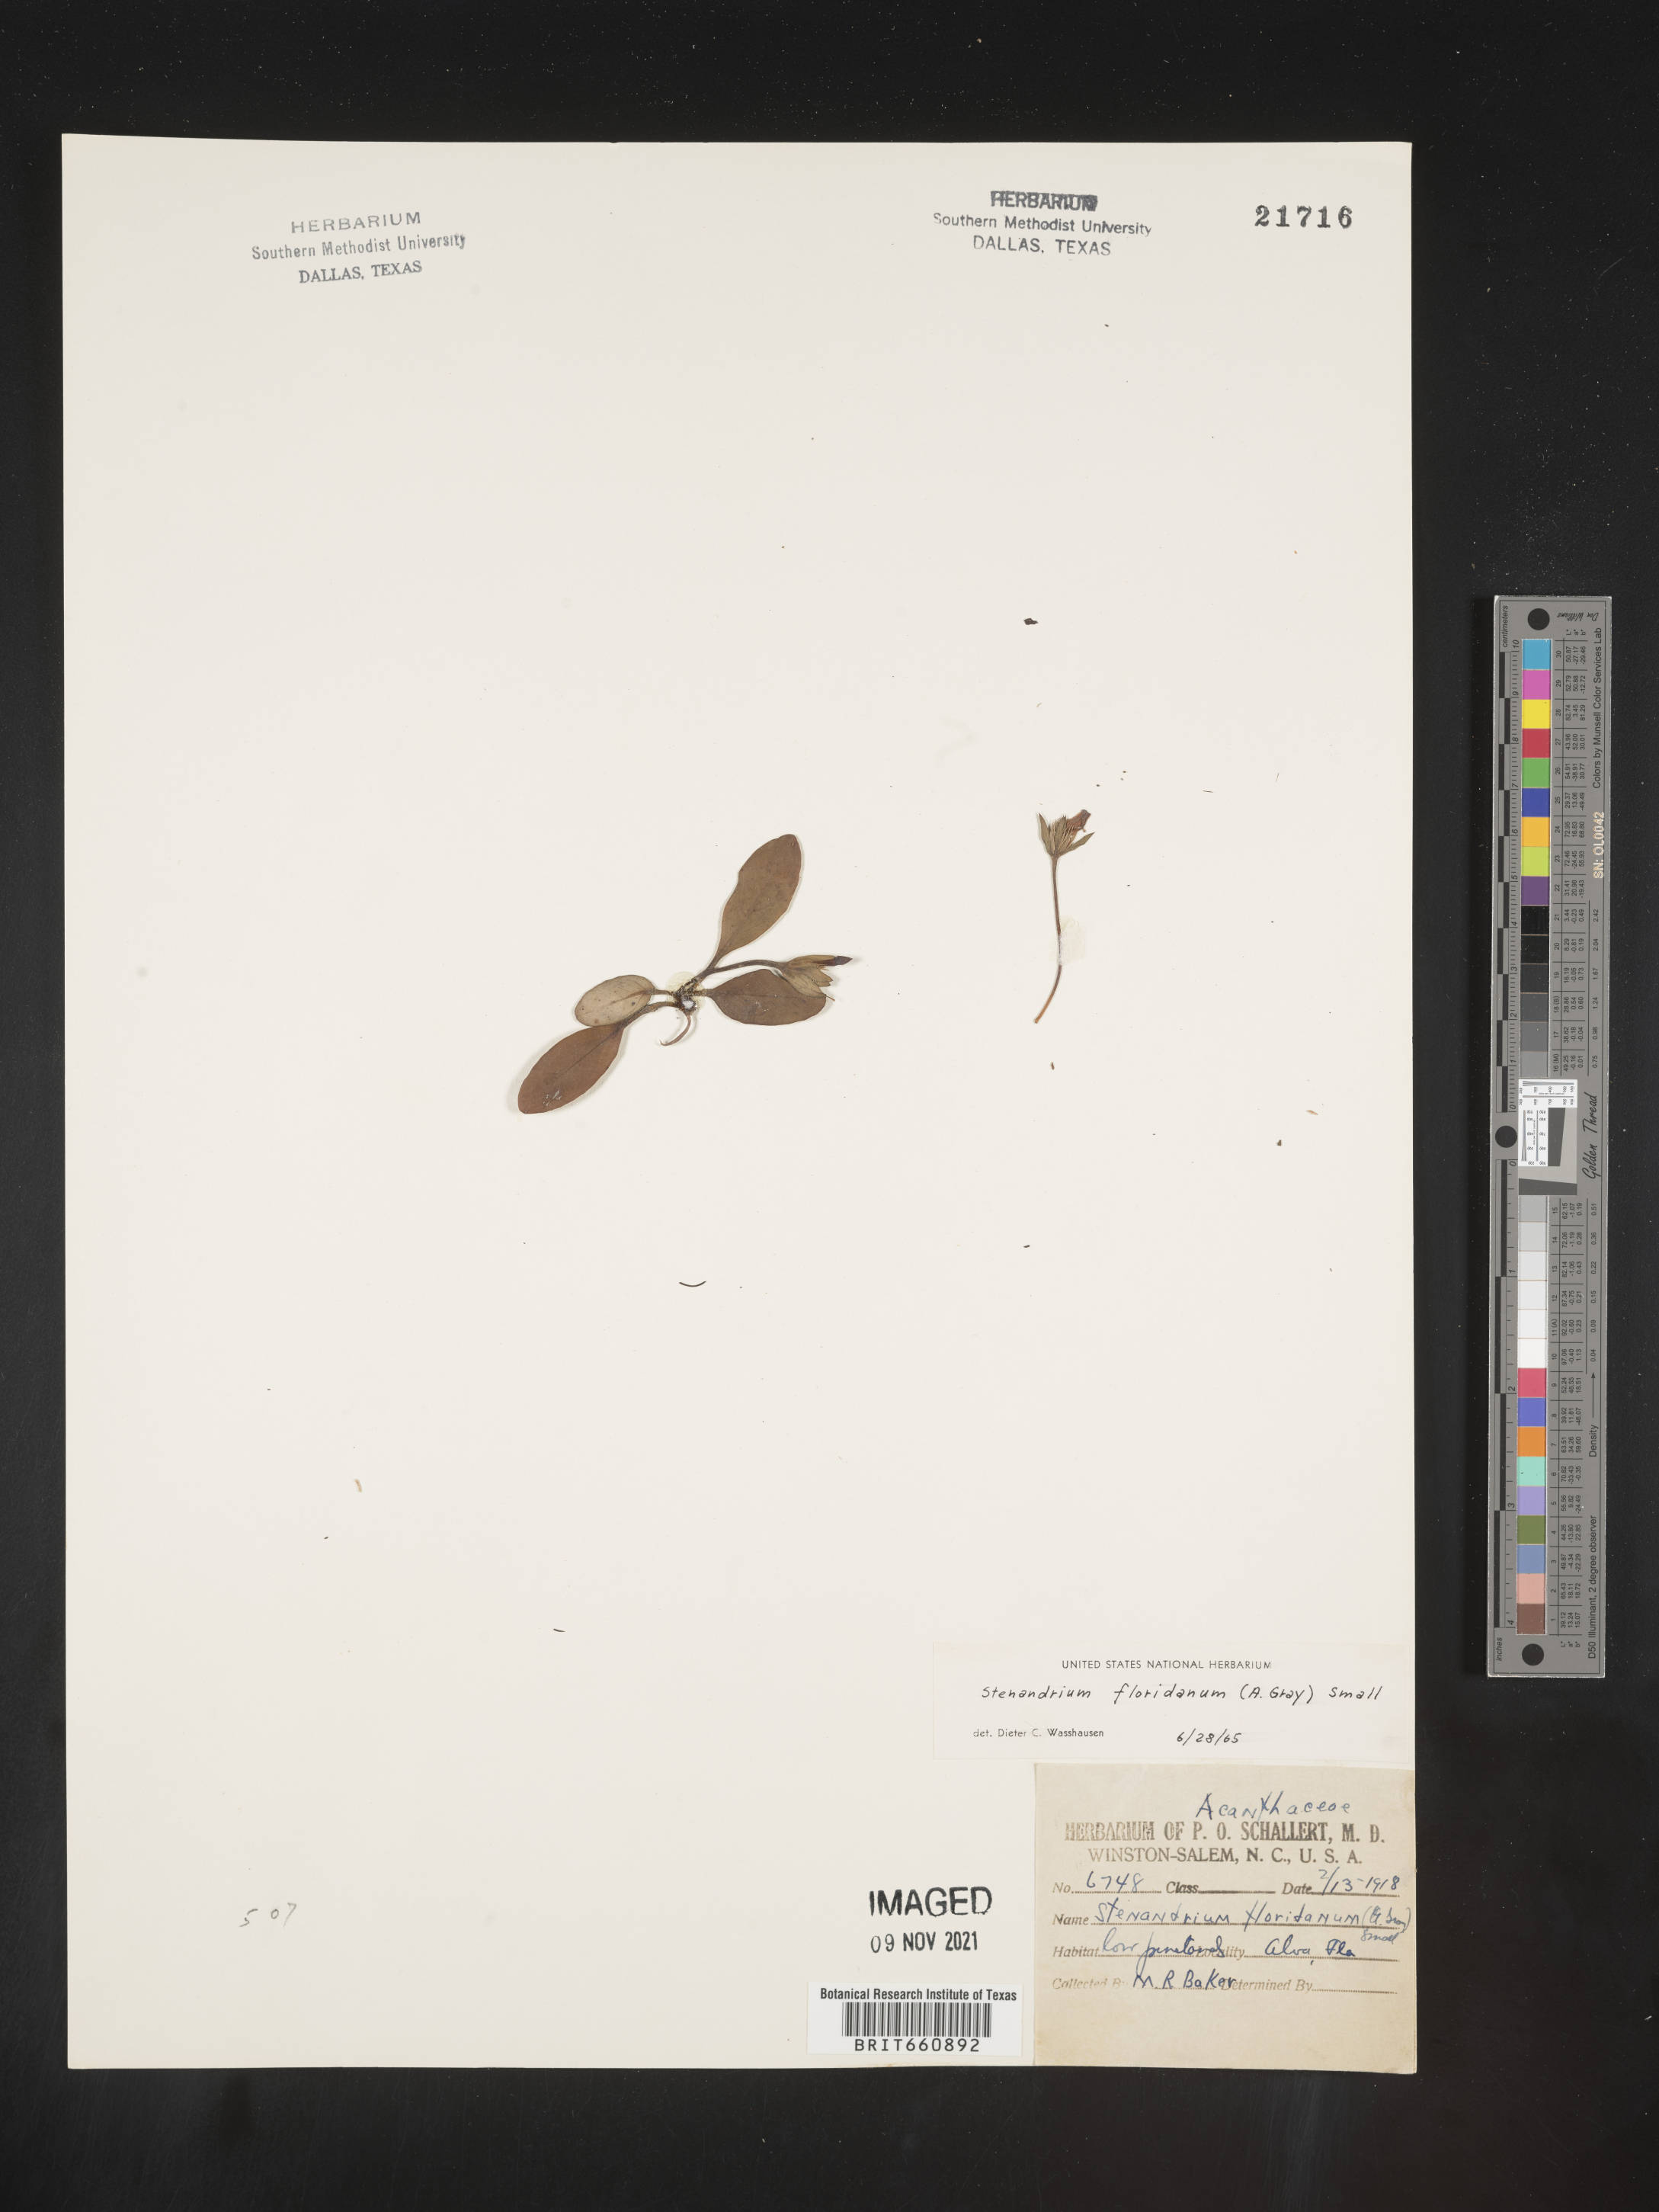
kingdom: Plantae
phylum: Tracheophyta
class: Magnoliopsida
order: Lamiales
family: Acanthaceae
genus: Stenandrium
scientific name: Stenandrium
